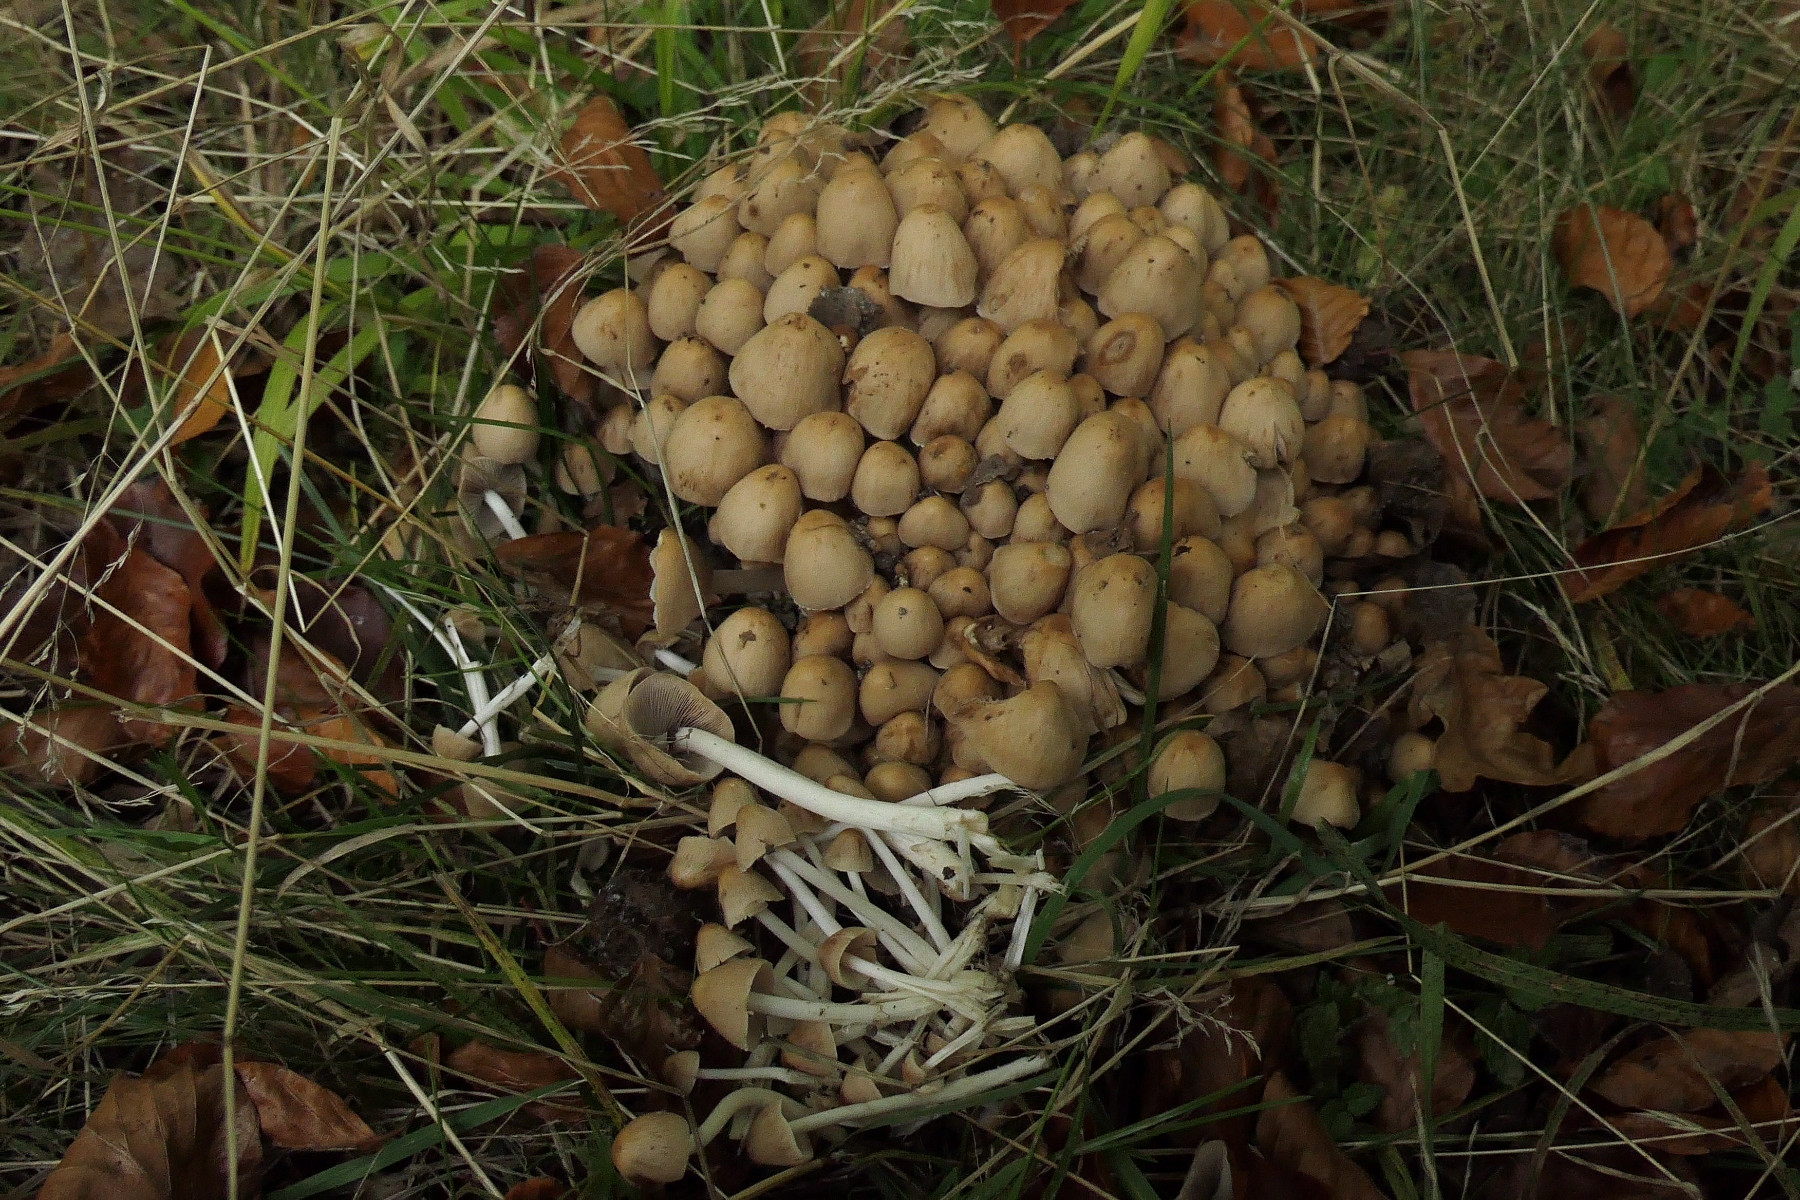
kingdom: Fungi
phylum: Basidiomycota
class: Agaricomycetes
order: Agaricales
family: Psathyrellaceae
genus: Britzelmayria
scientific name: Britzelmayria multipedata
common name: knippe-mørkhat
